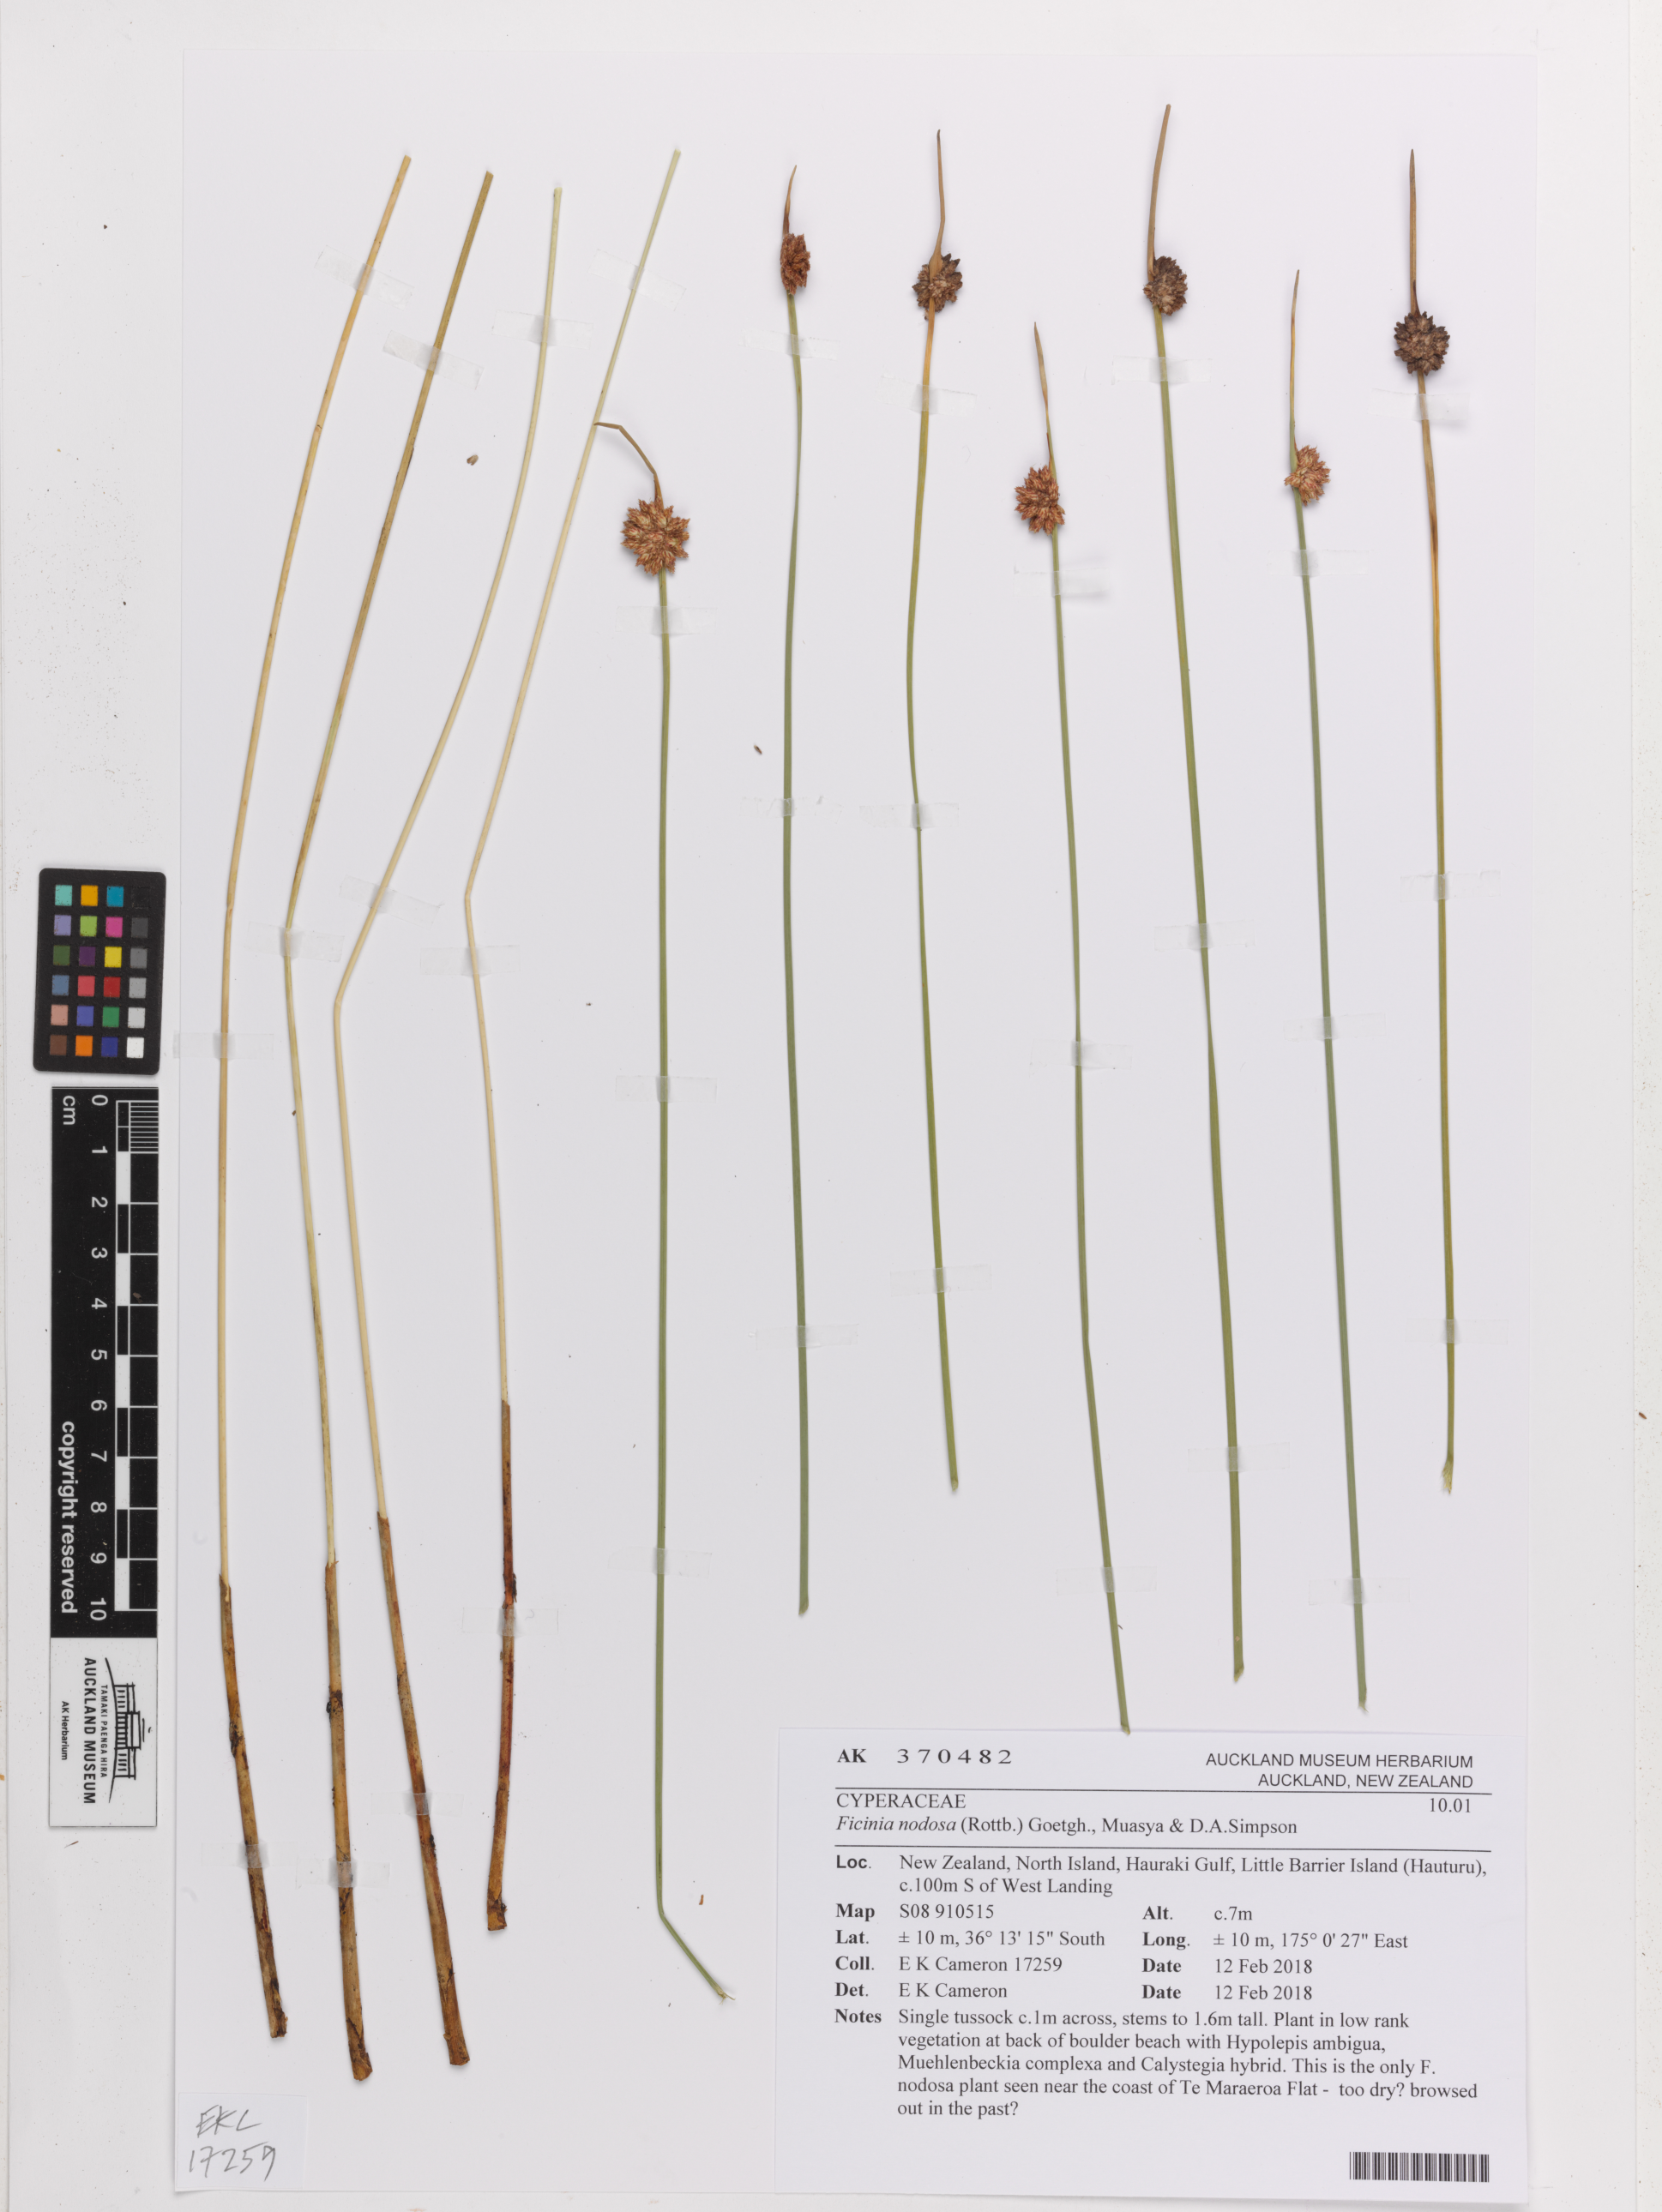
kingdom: Plantae
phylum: Tracheophyta
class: Liliopsida
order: Poales
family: Cyperaceae
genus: Ficinia
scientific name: Ficinia nodosa
